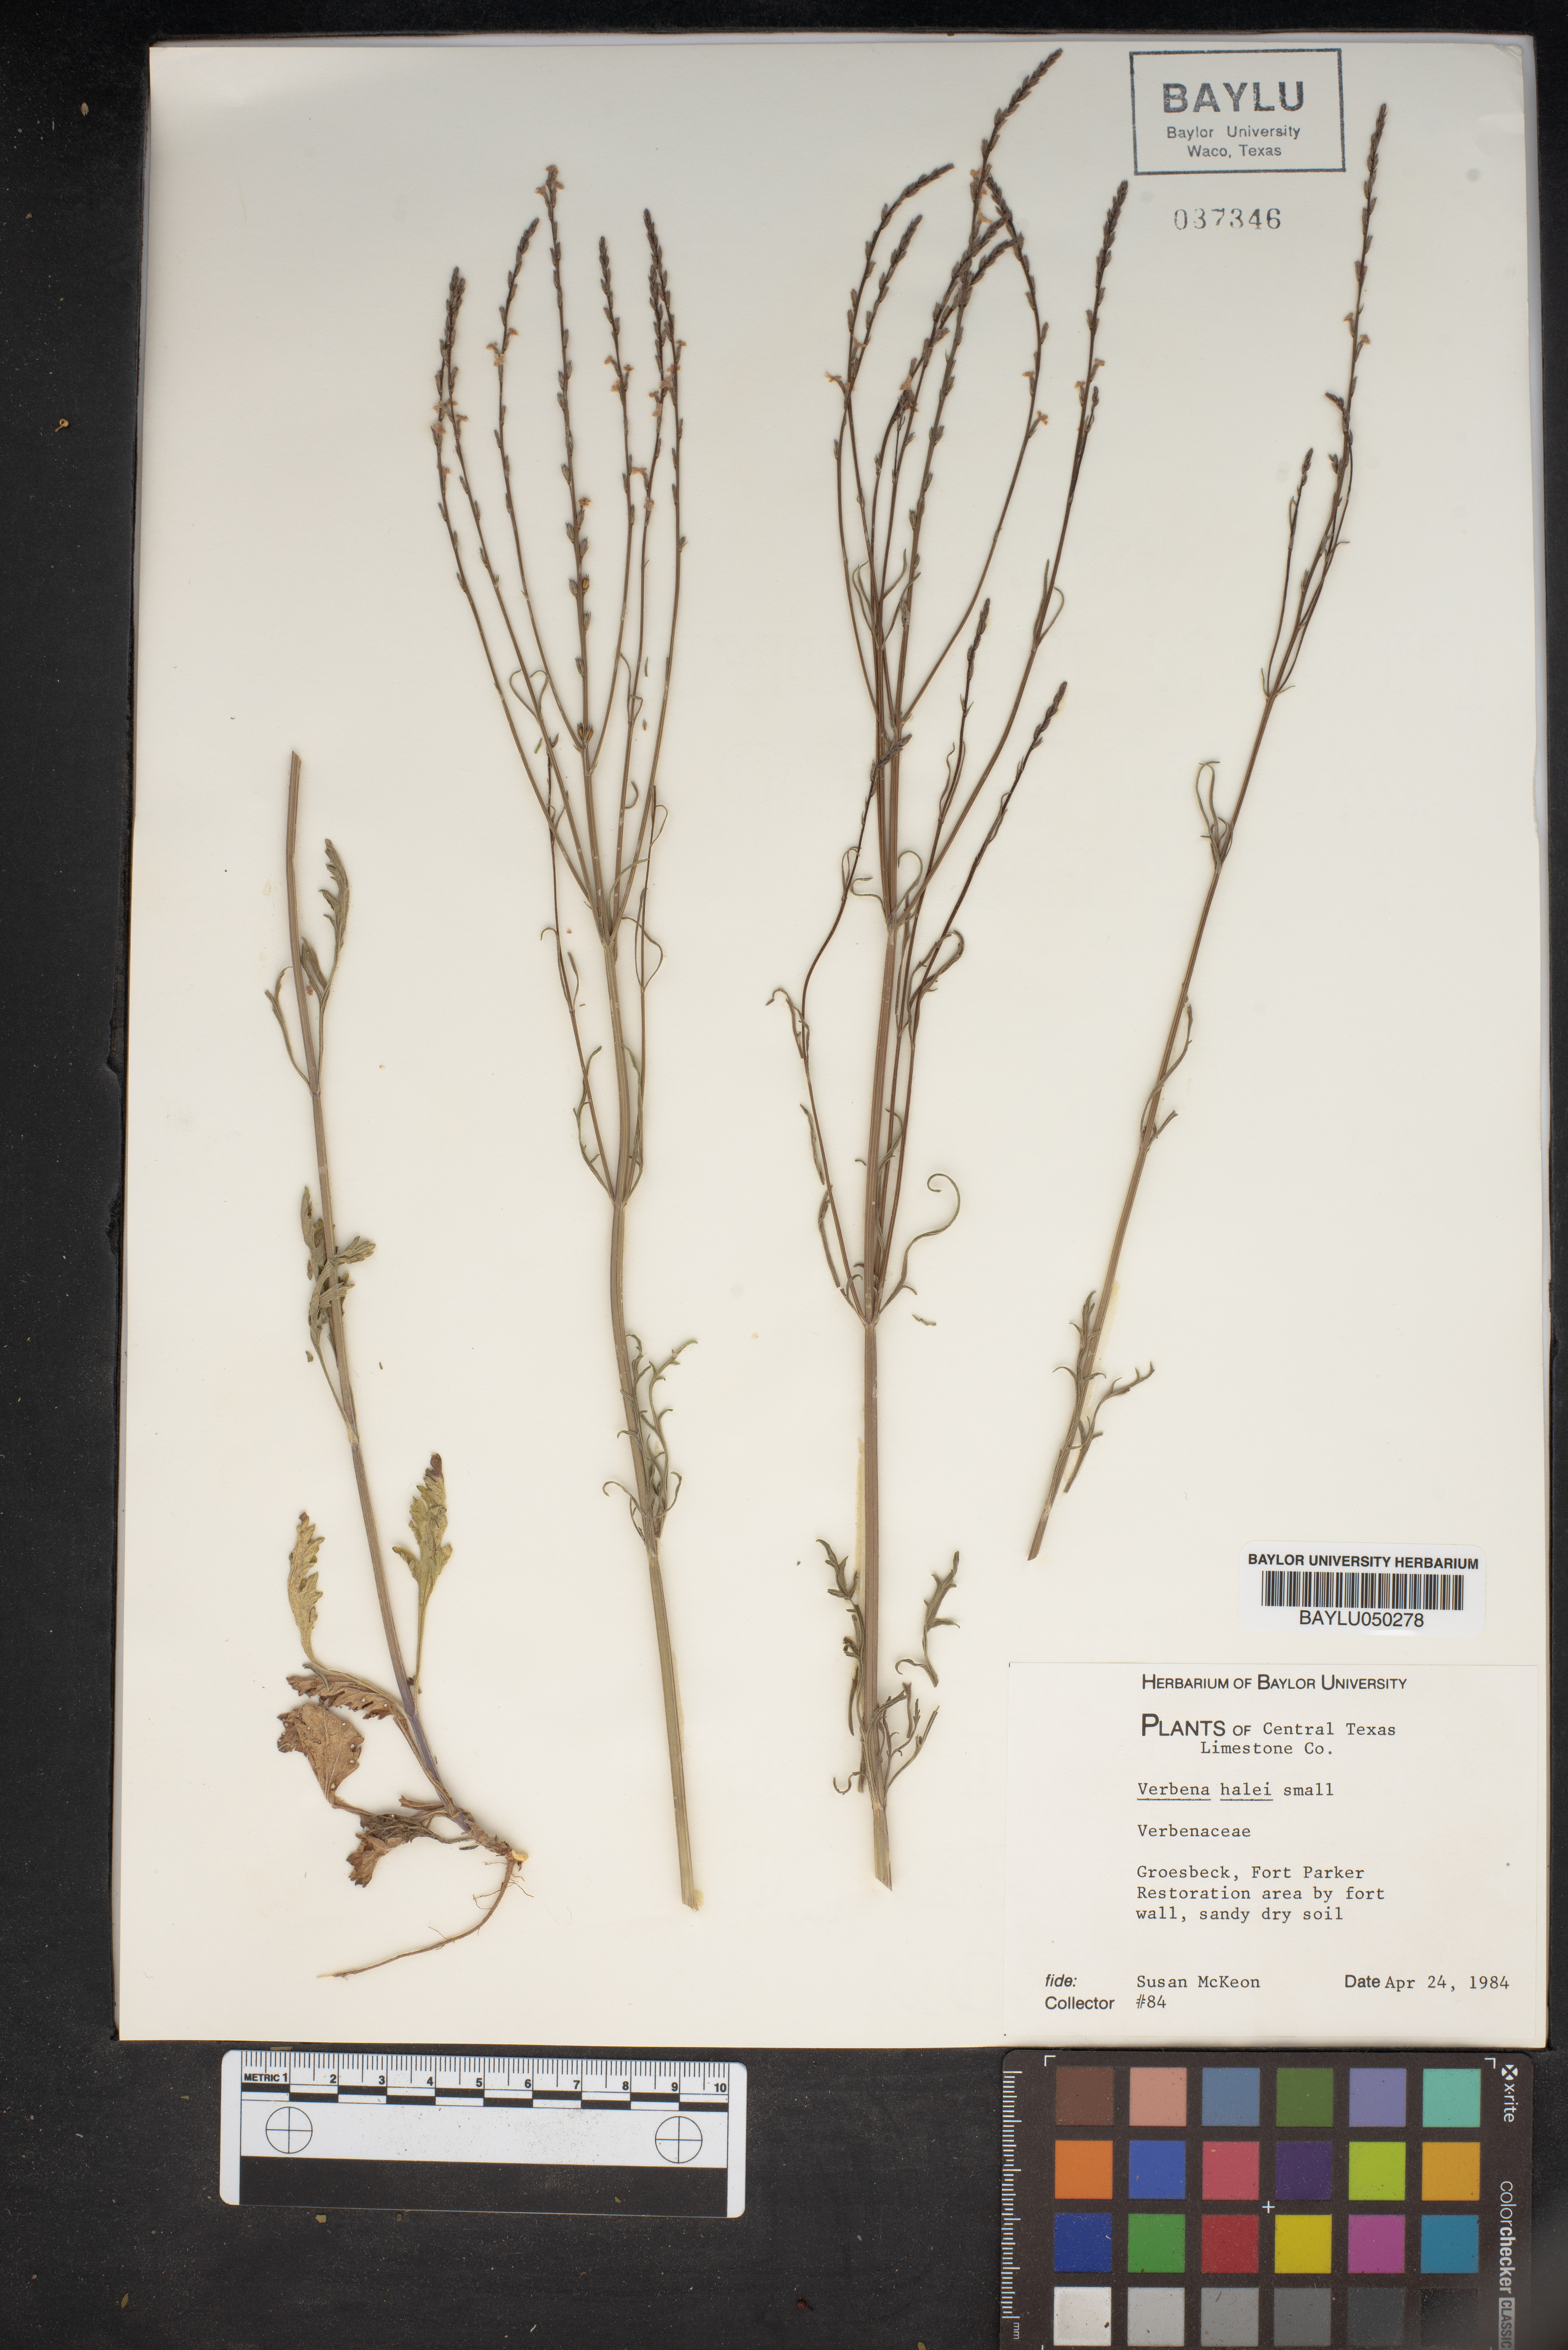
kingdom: Plantae
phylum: Tracheophyta
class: Magnoliopsida
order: Lamiales
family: Verbenaceae
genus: Verbena
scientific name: Verbena halei
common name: Texas vervain
